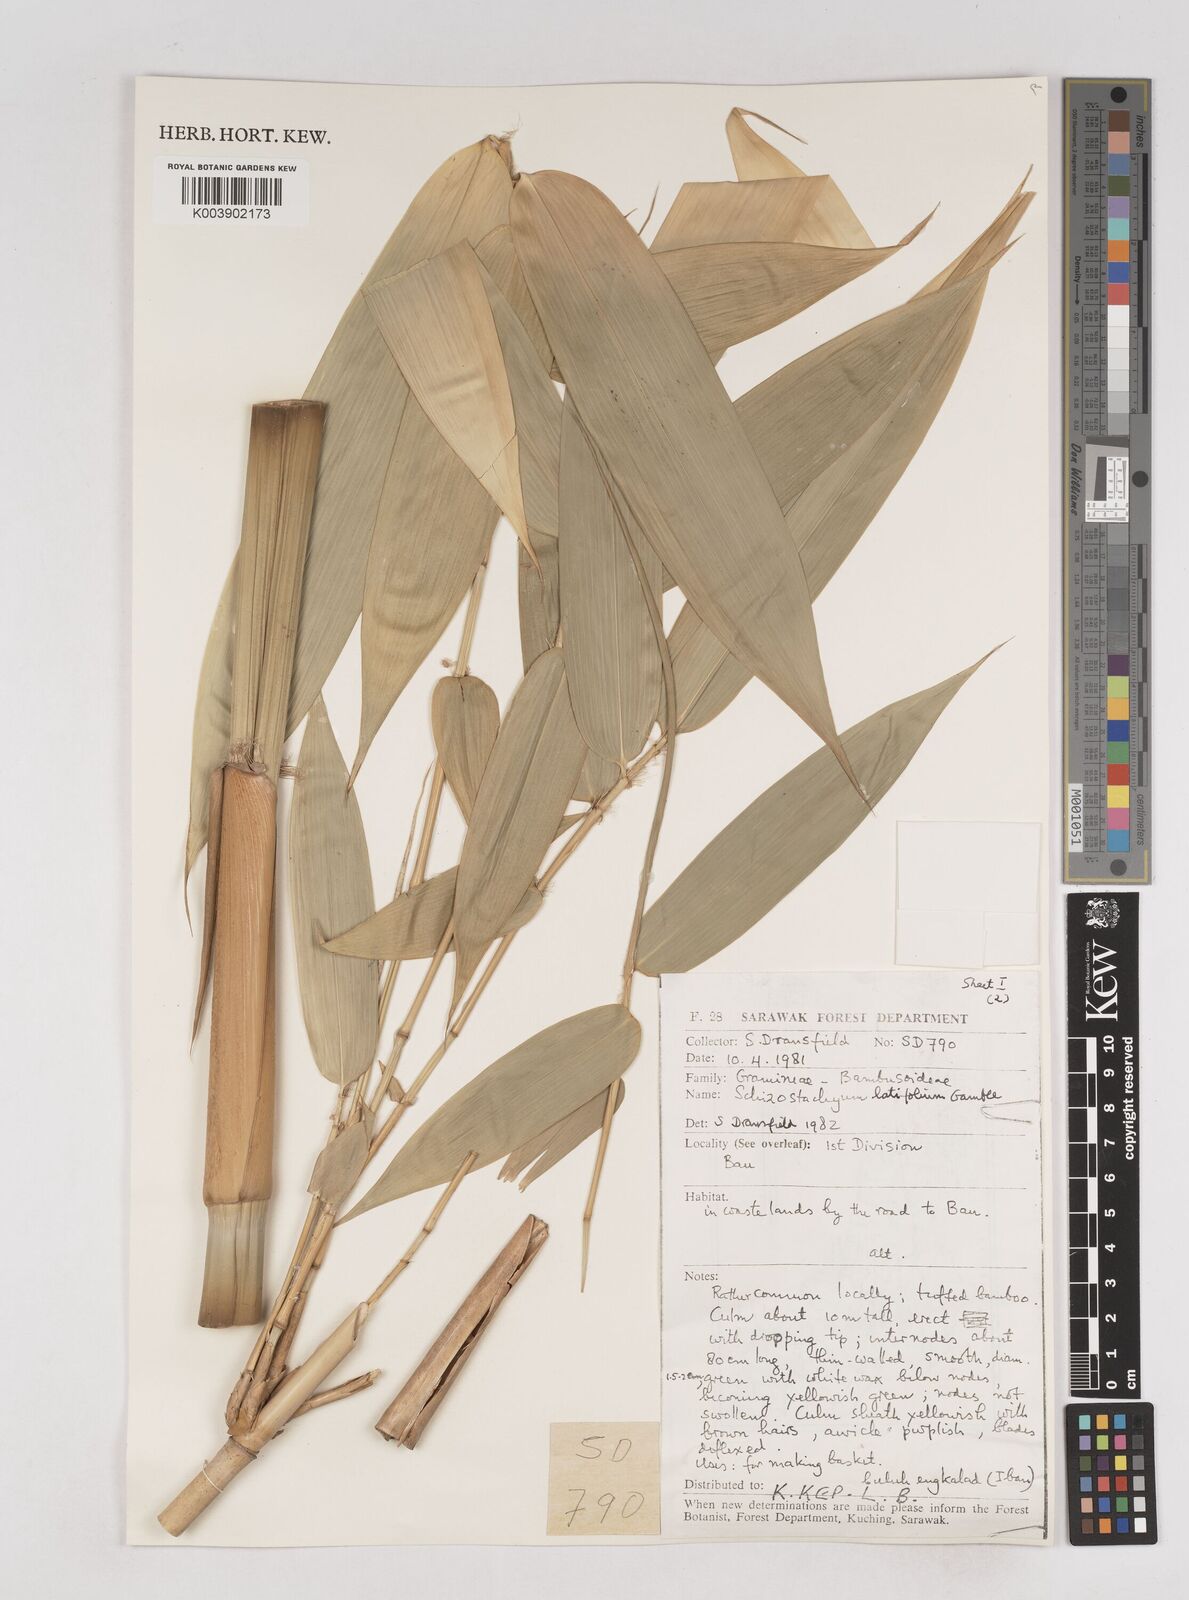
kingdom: Plantae
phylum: Tracheophyta
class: Liliopsida
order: Poales
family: Poaceae
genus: Schizostachyum
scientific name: Schizostachyum latifolium
